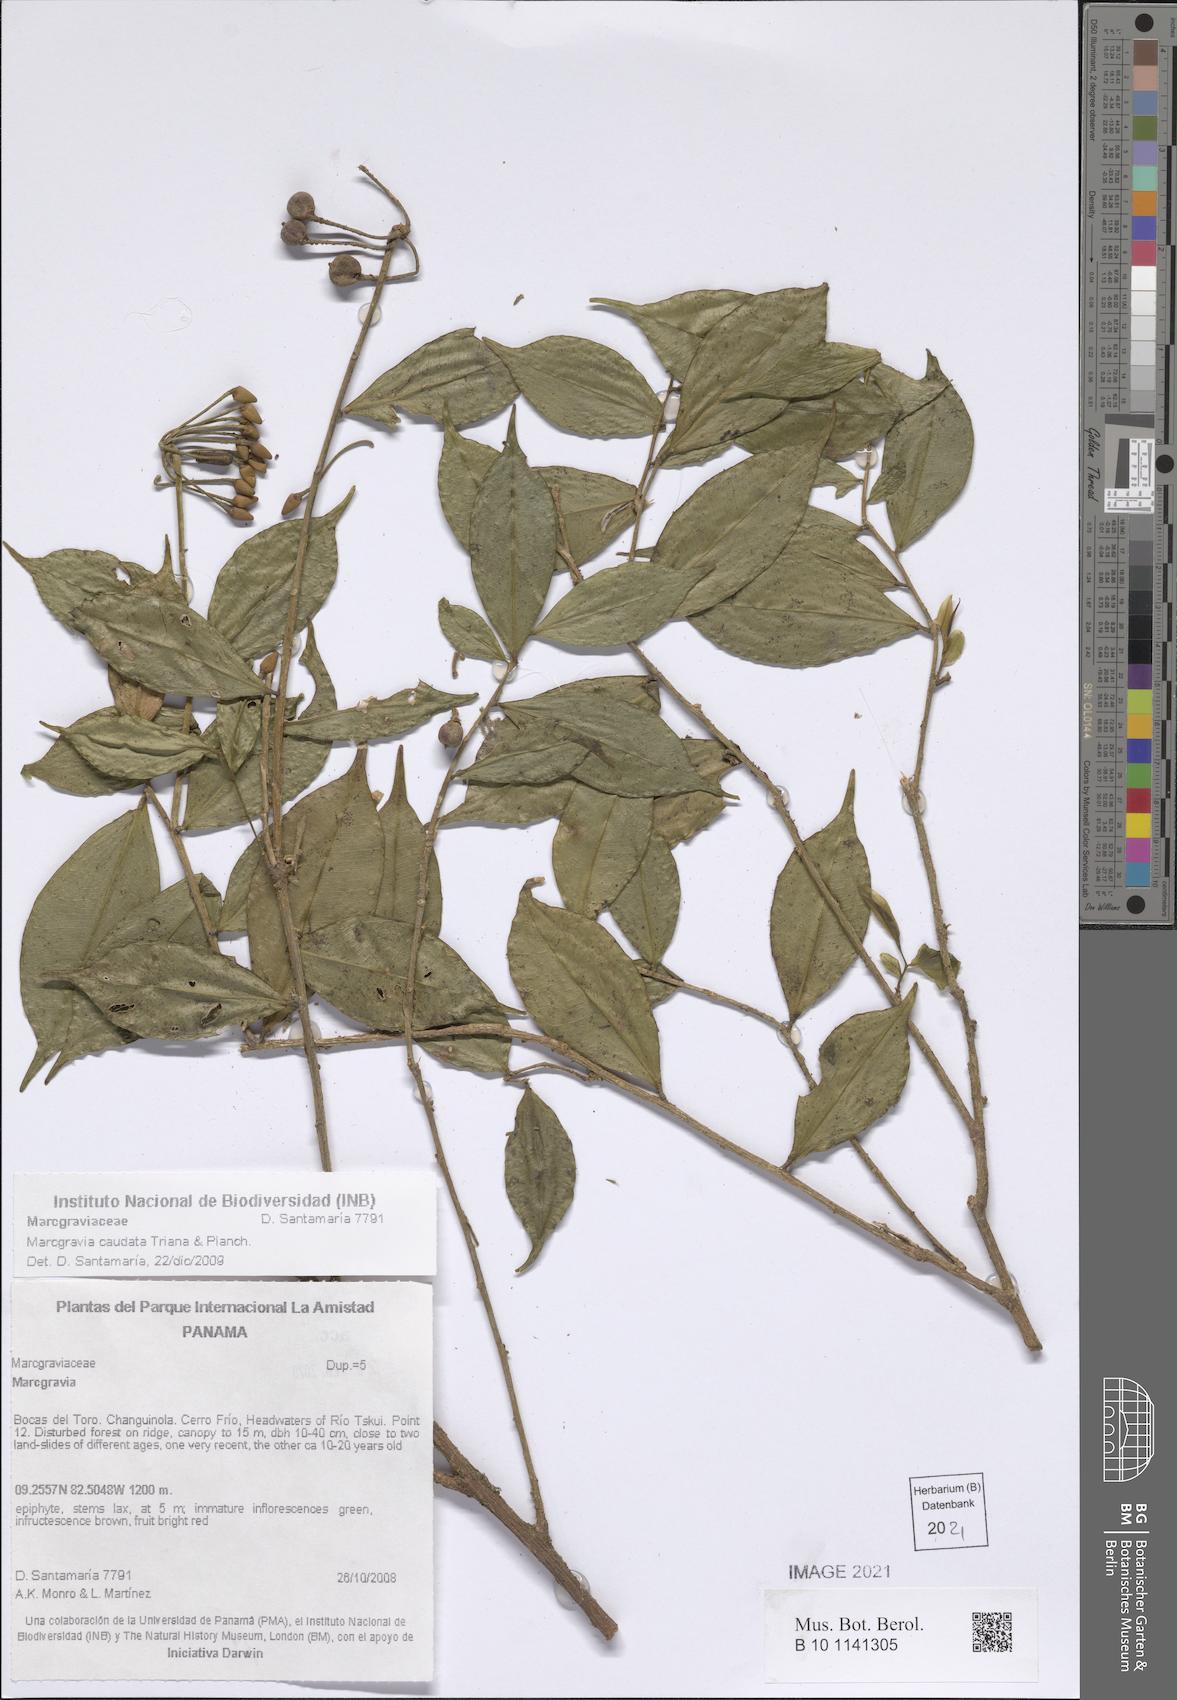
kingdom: Plantae
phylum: Tracheophyta
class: Magnoliopsida
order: Ericales
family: Marcgraviaceae
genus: Marcgravia
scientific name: Marcgravia caudata
